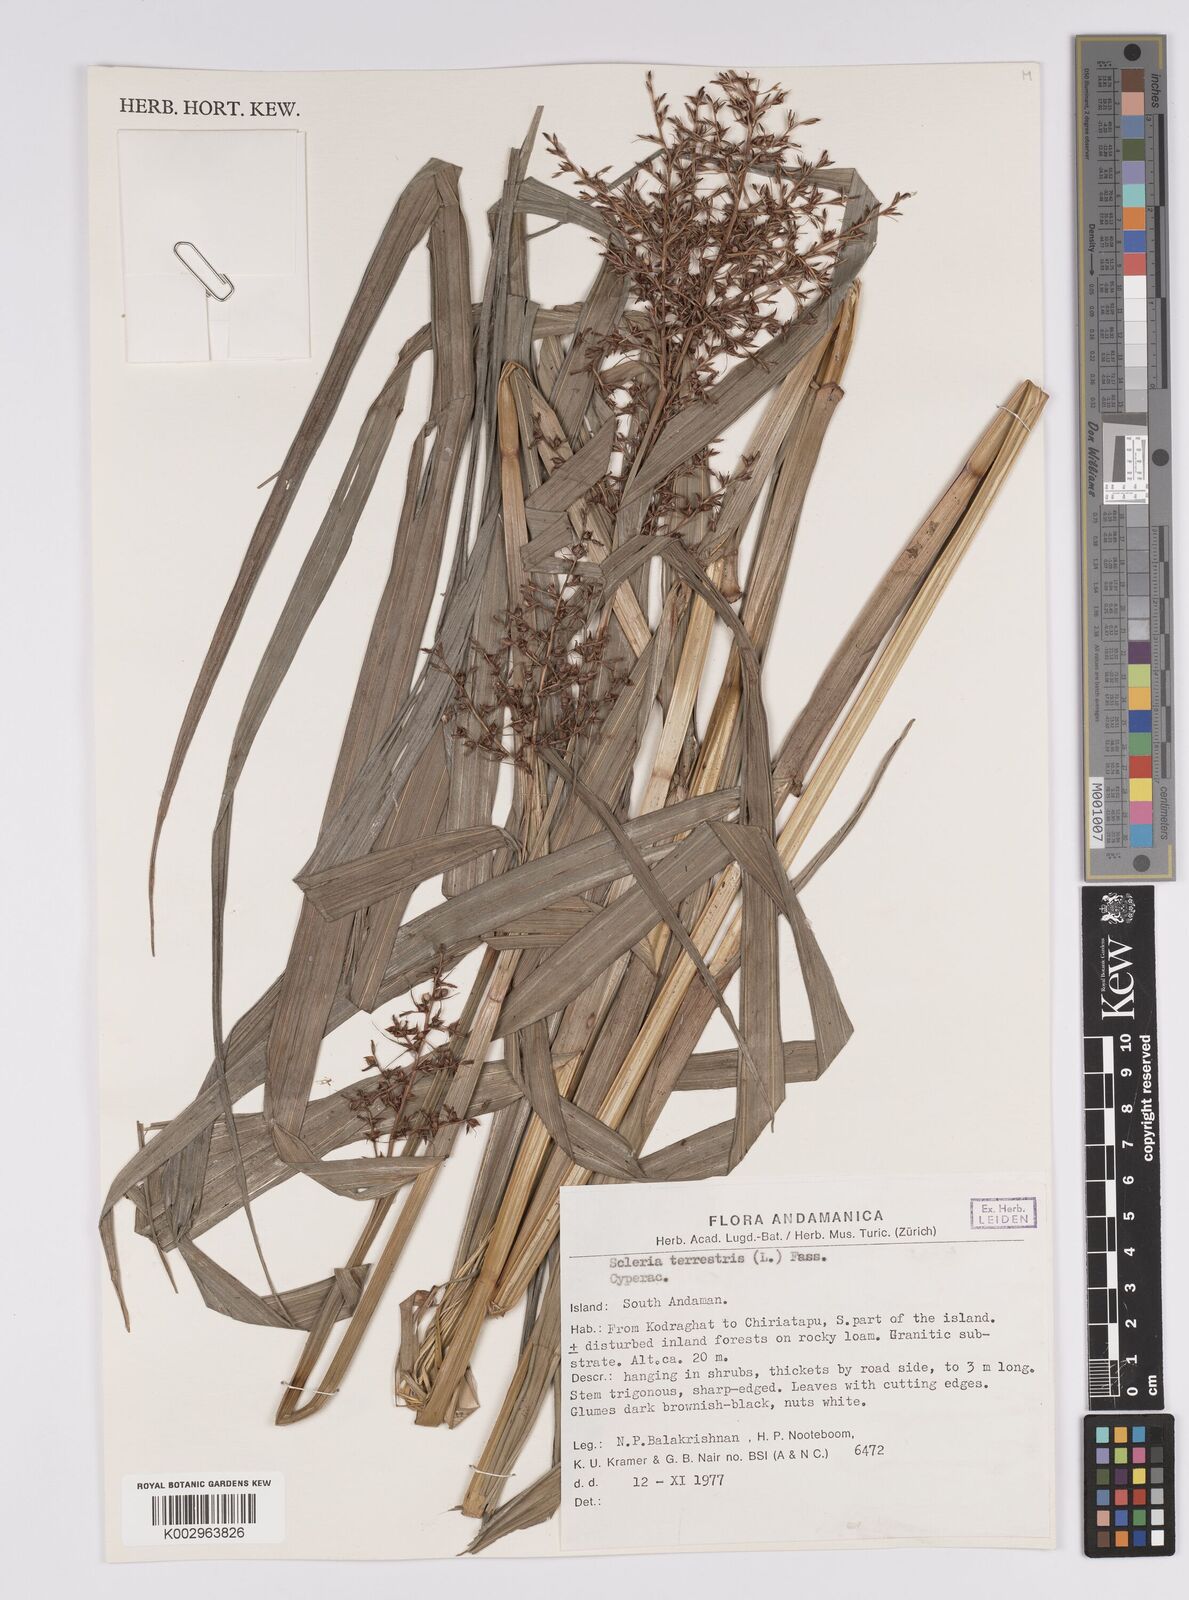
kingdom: Plantae
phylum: Tracheophyta
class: Liliopsida
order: Poales
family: Cyperaceae
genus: Scleria
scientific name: Scleria terrestris
